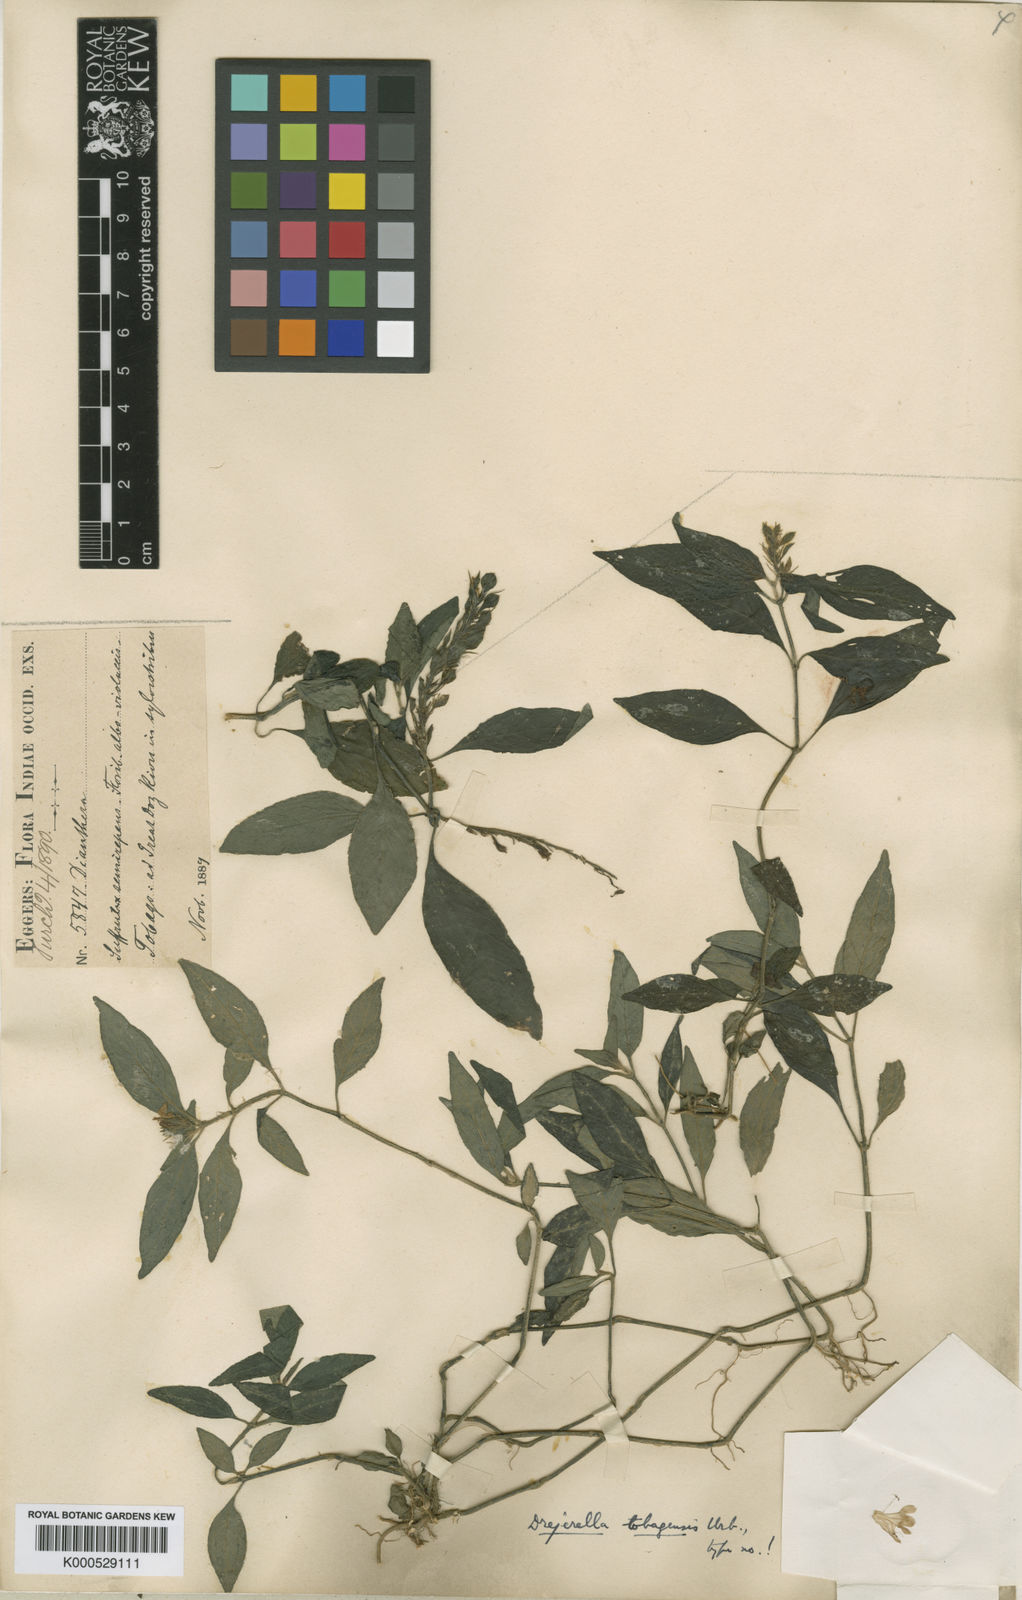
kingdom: Plantae
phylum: Tracheophyta
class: Magnoliopsida
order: Lamiales
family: Acanthaceae
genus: Justicia
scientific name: Justicia tobagensis
